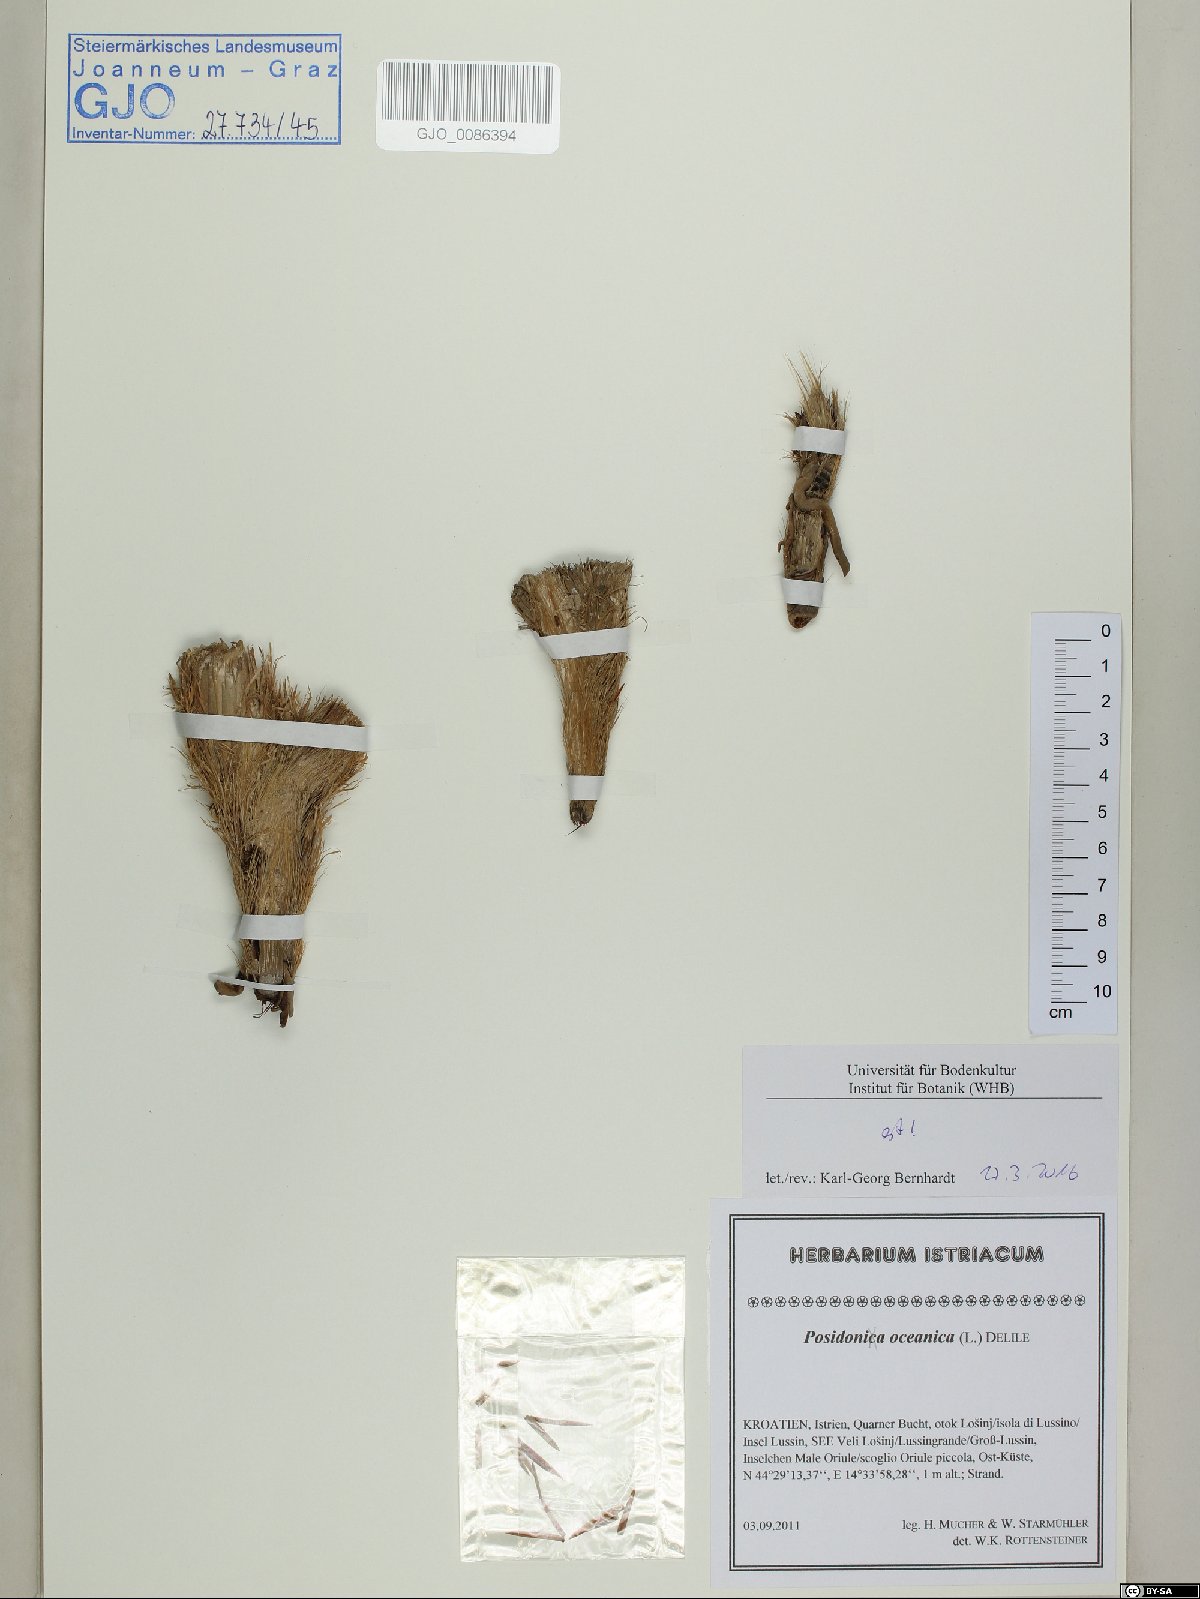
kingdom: Plantae
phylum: Tracheophyta
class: Liliopsida
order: Alismatales
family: Posidoniaceae
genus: Posidonia
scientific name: Posidonia oceanica
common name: Mediterranean tapeweed
